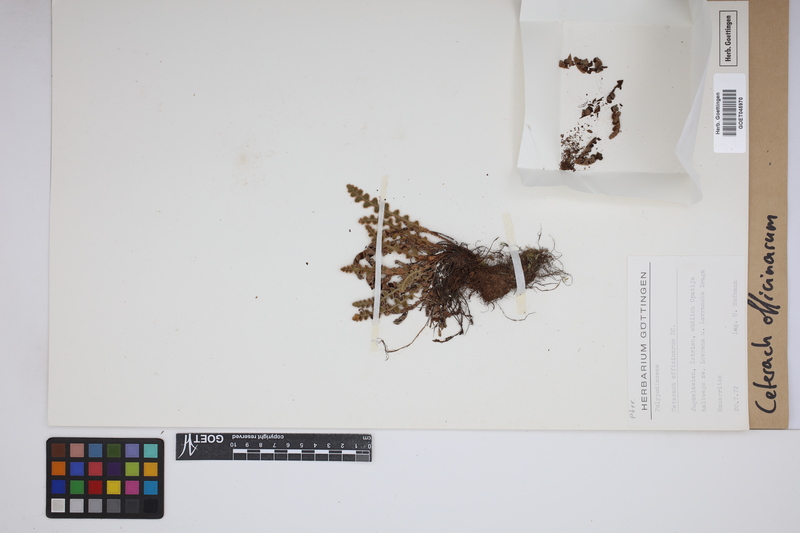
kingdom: Plantae
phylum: Tracheophyta
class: Polypodiopsida
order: Polypodiales
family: Aspleniaceae
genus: Asplenium
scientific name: Asplenium ceterach
